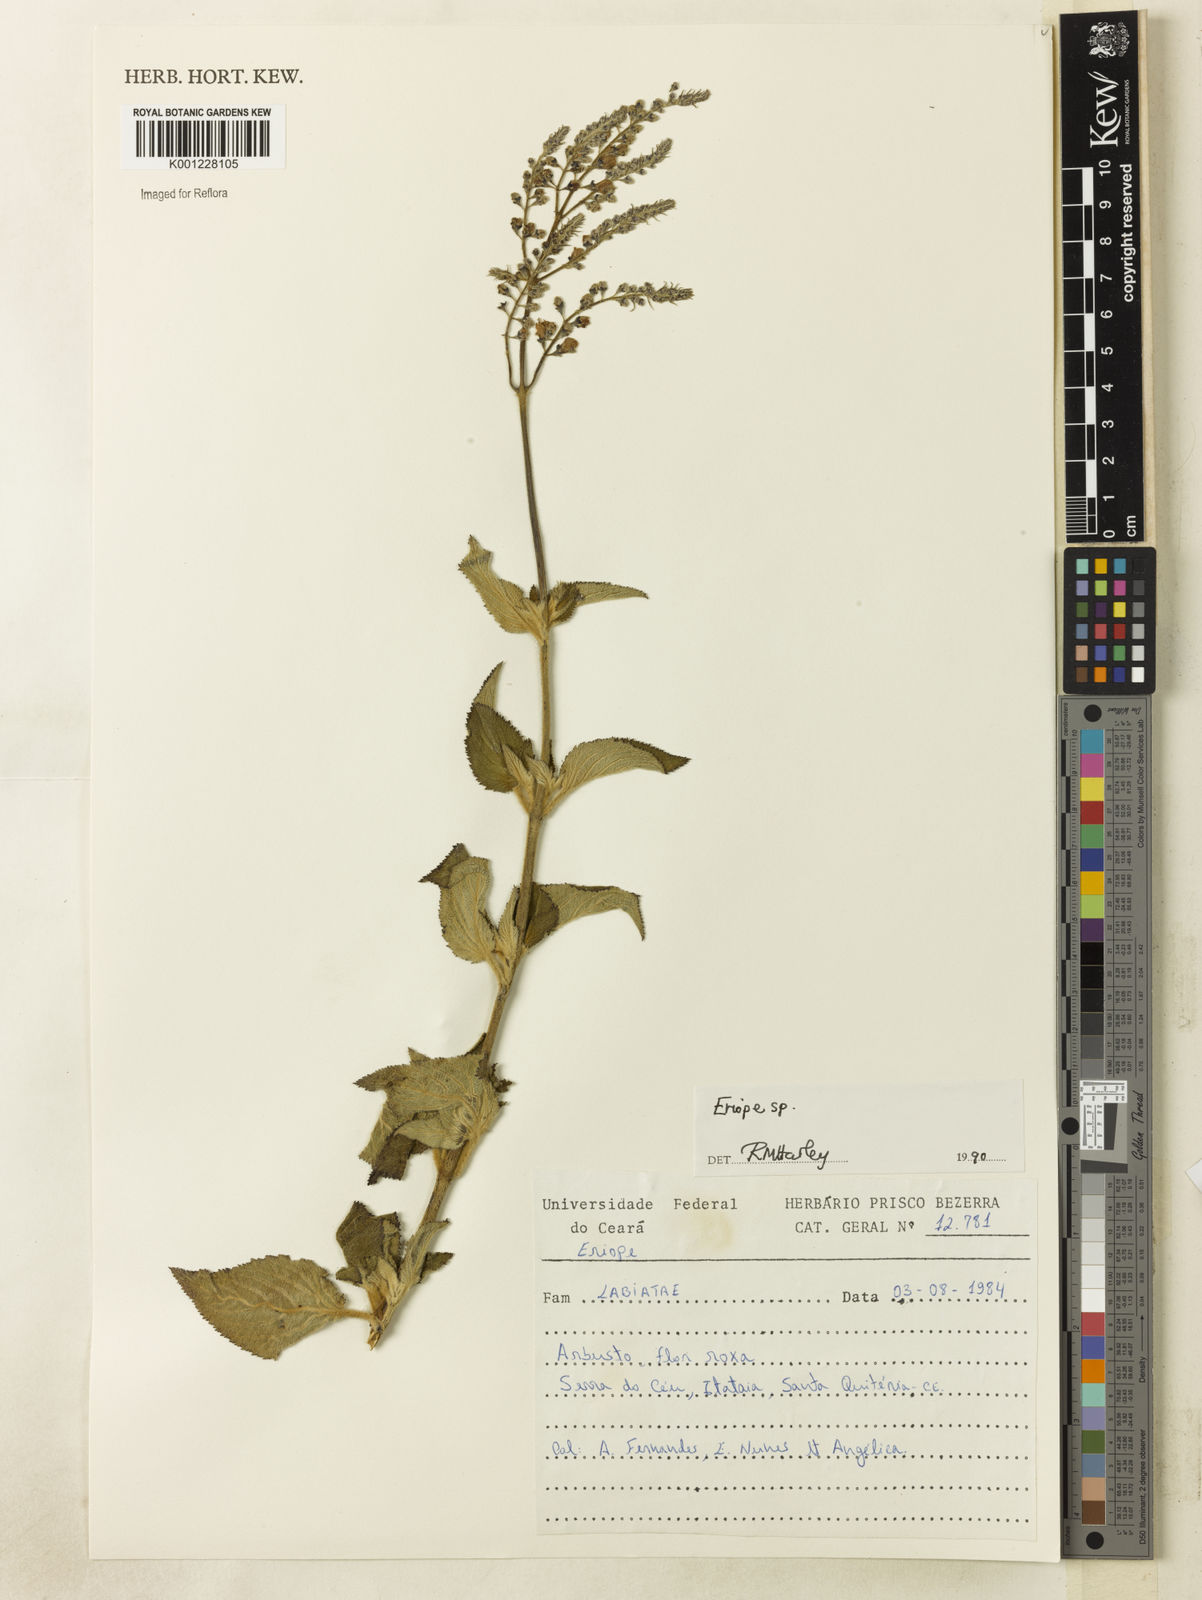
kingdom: Plantae
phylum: Tracheophyta
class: Magnoliopsida
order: Lamiales
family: Lamiaceae
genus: Eriope
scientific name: Eriope
